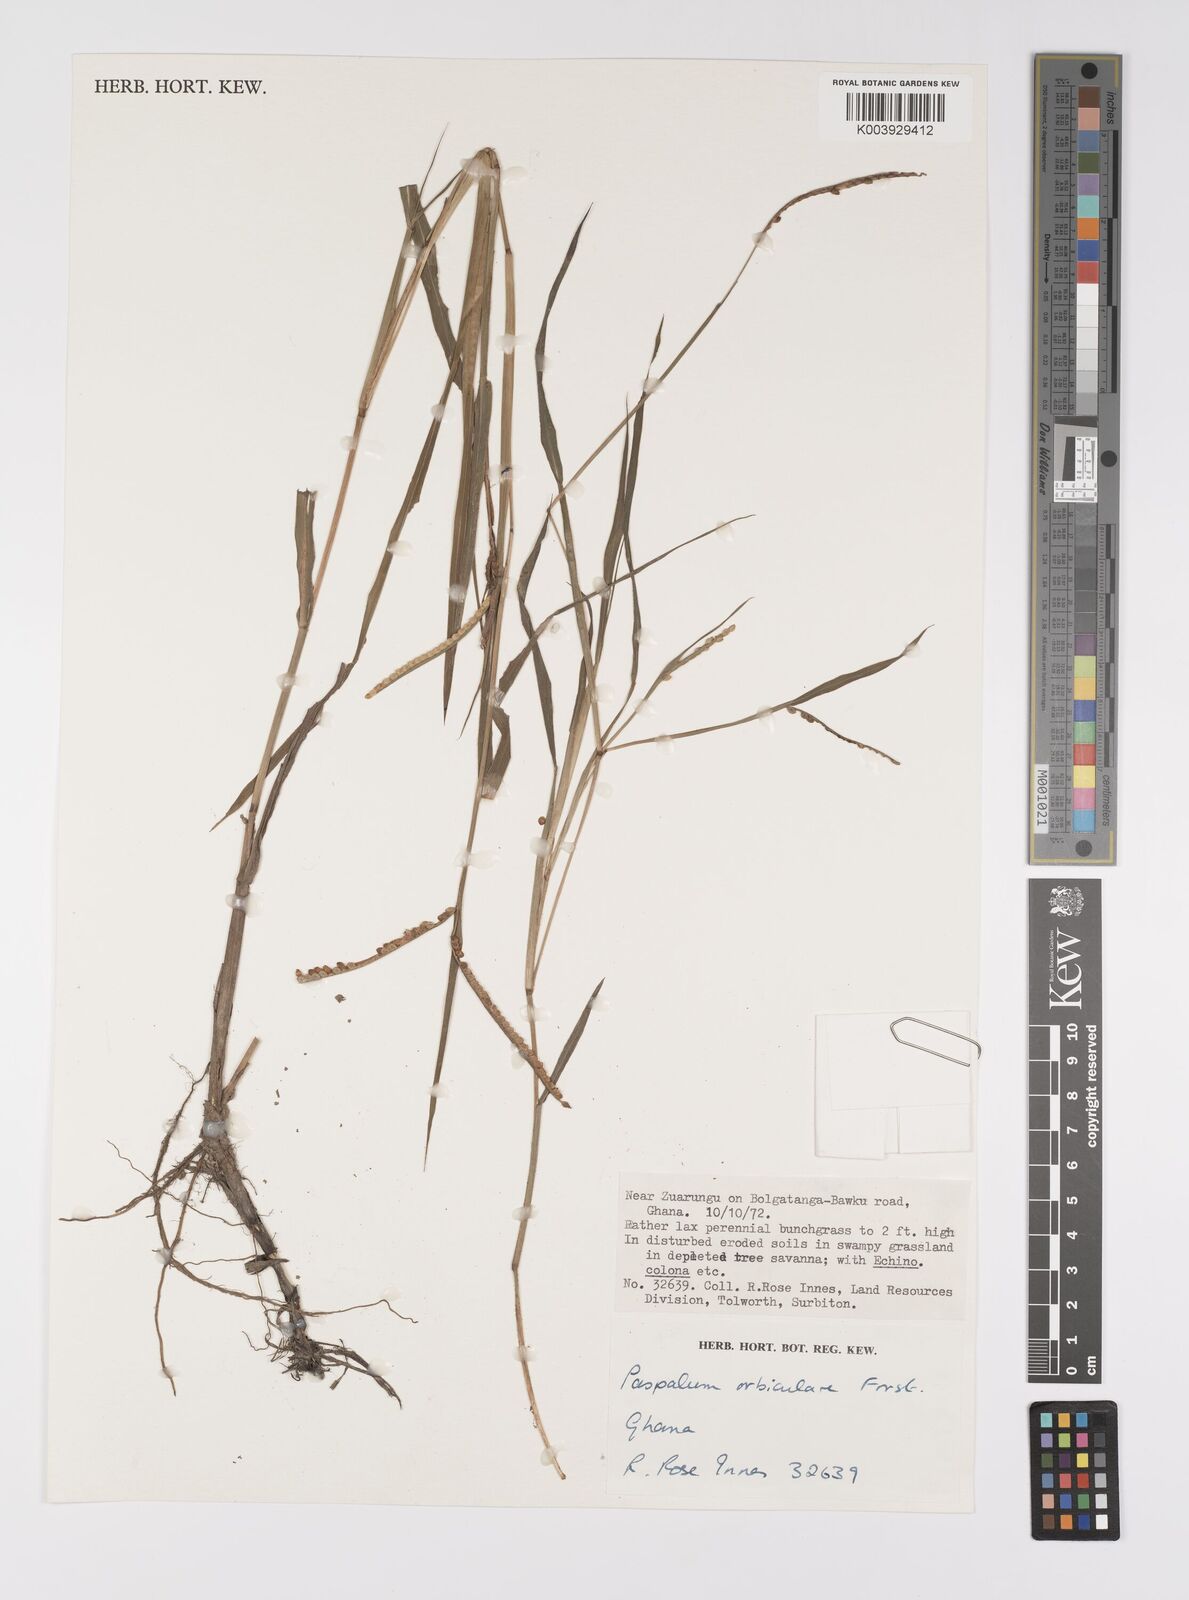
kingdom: Plantae
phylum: Tracheophyta
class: Liliopsida
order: Poales
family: Poaceae
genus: Paspalum
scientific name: Paspalum scrobiculatum
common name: Kodo millet
